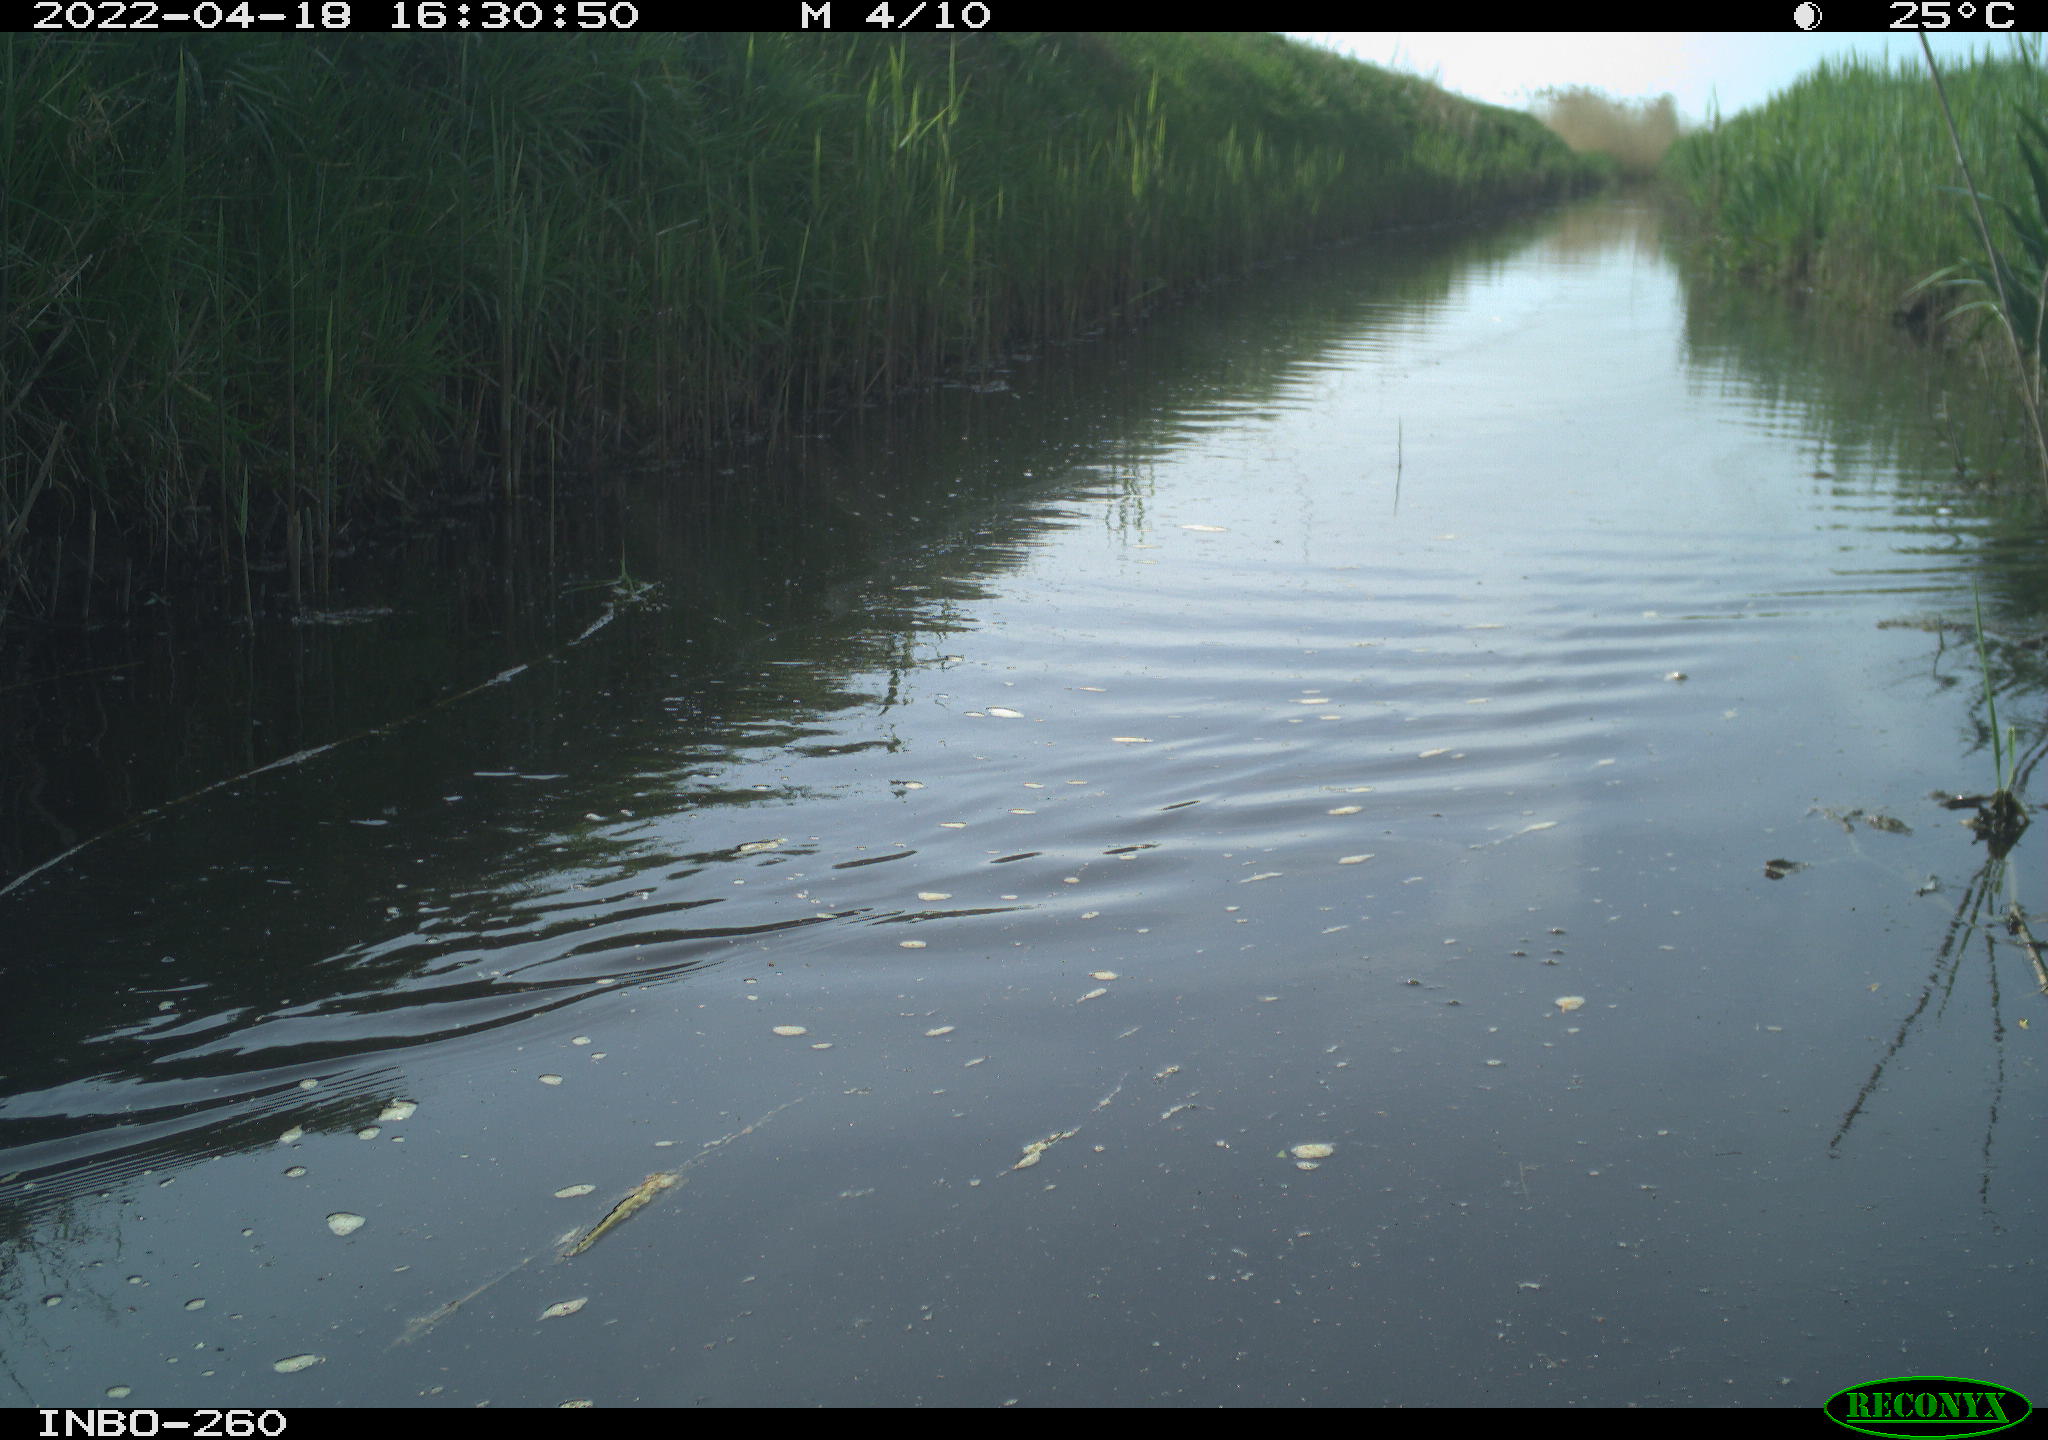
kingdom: Animalia
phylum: Chordata
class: Aves
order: Gruiformes
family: Rallidae
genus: Fulica
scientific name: Fulica atra
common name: Eurasian coot
